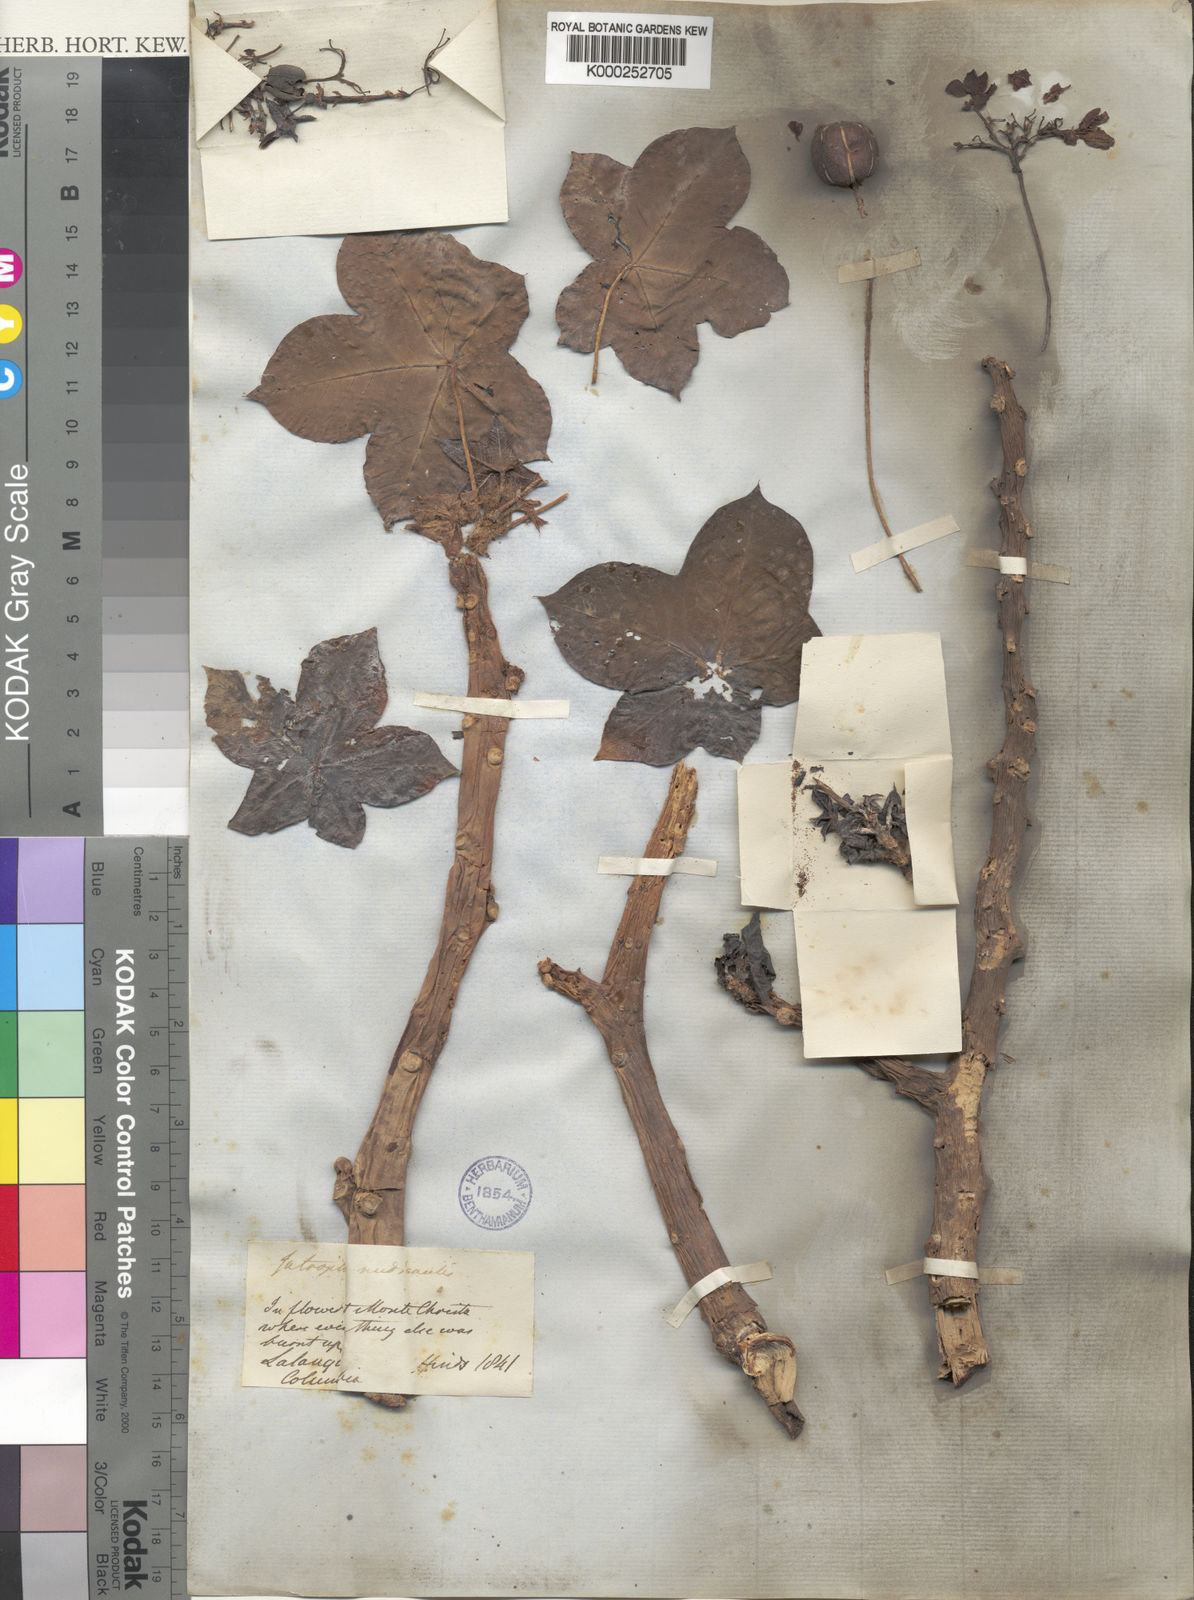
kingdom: Plantae
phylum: Tracheophyta
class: Magnoliopsida
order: Malpighiales
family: Euphorbiaceae
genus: Jatropha
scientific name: Jatropha nudicaulis
